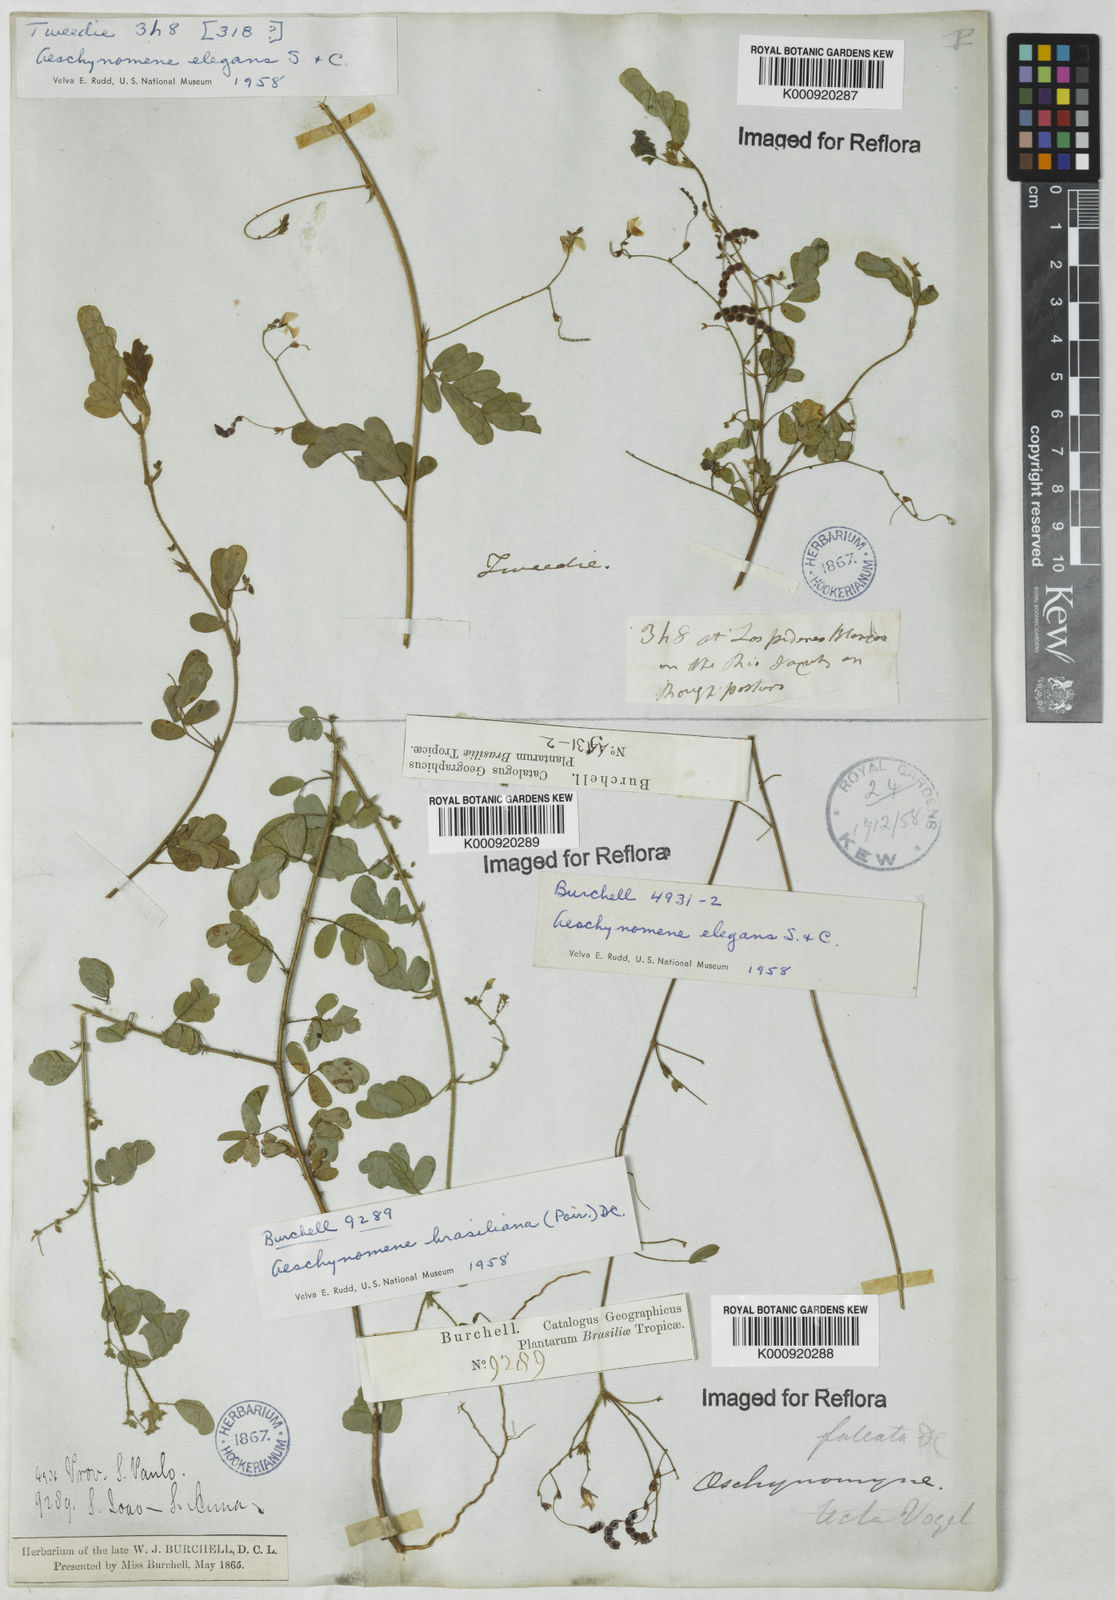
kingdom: Plantae
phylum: Tracheophyta
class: Magnoliopsida
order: Fabales
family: Fabaceae
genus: Ctenodon
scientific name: Ctenodon elegans
